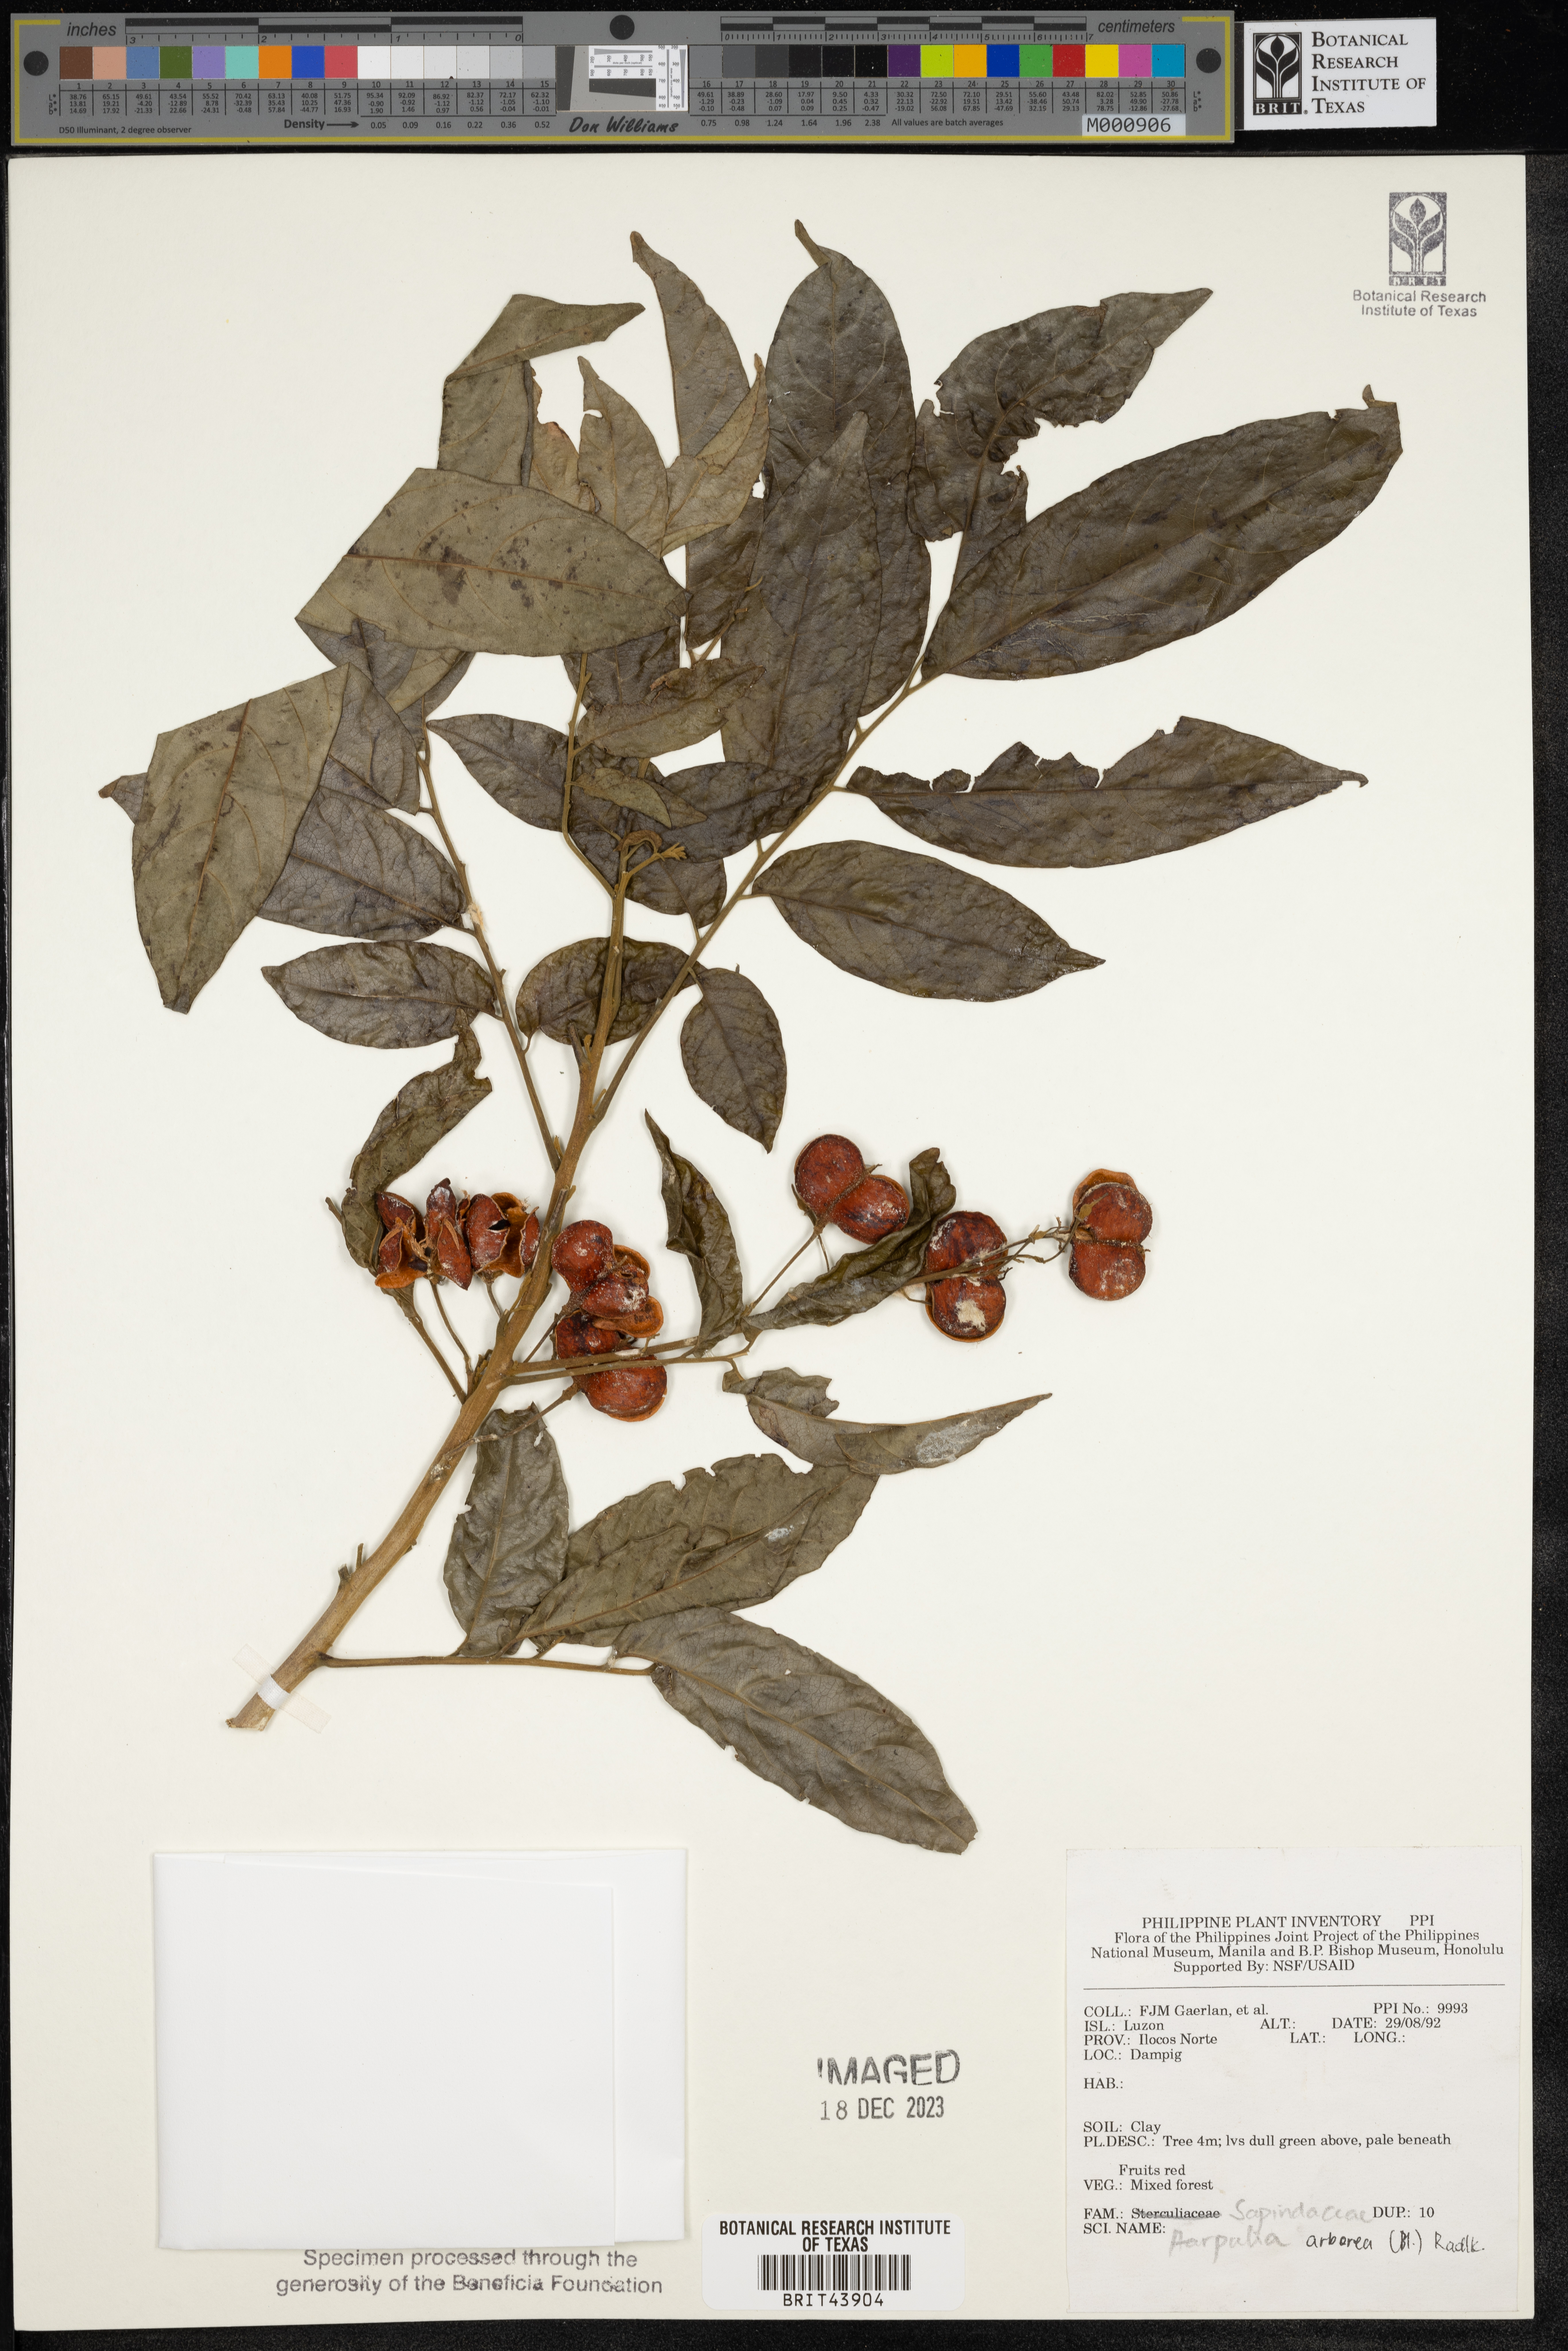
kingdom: Plantae
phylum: Tracheophyta
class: Magnoliopsida
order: Sapindales
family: Sapindaceae
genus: Harpullia
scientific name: Harpullia arborea
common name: Tulip-wood tree
